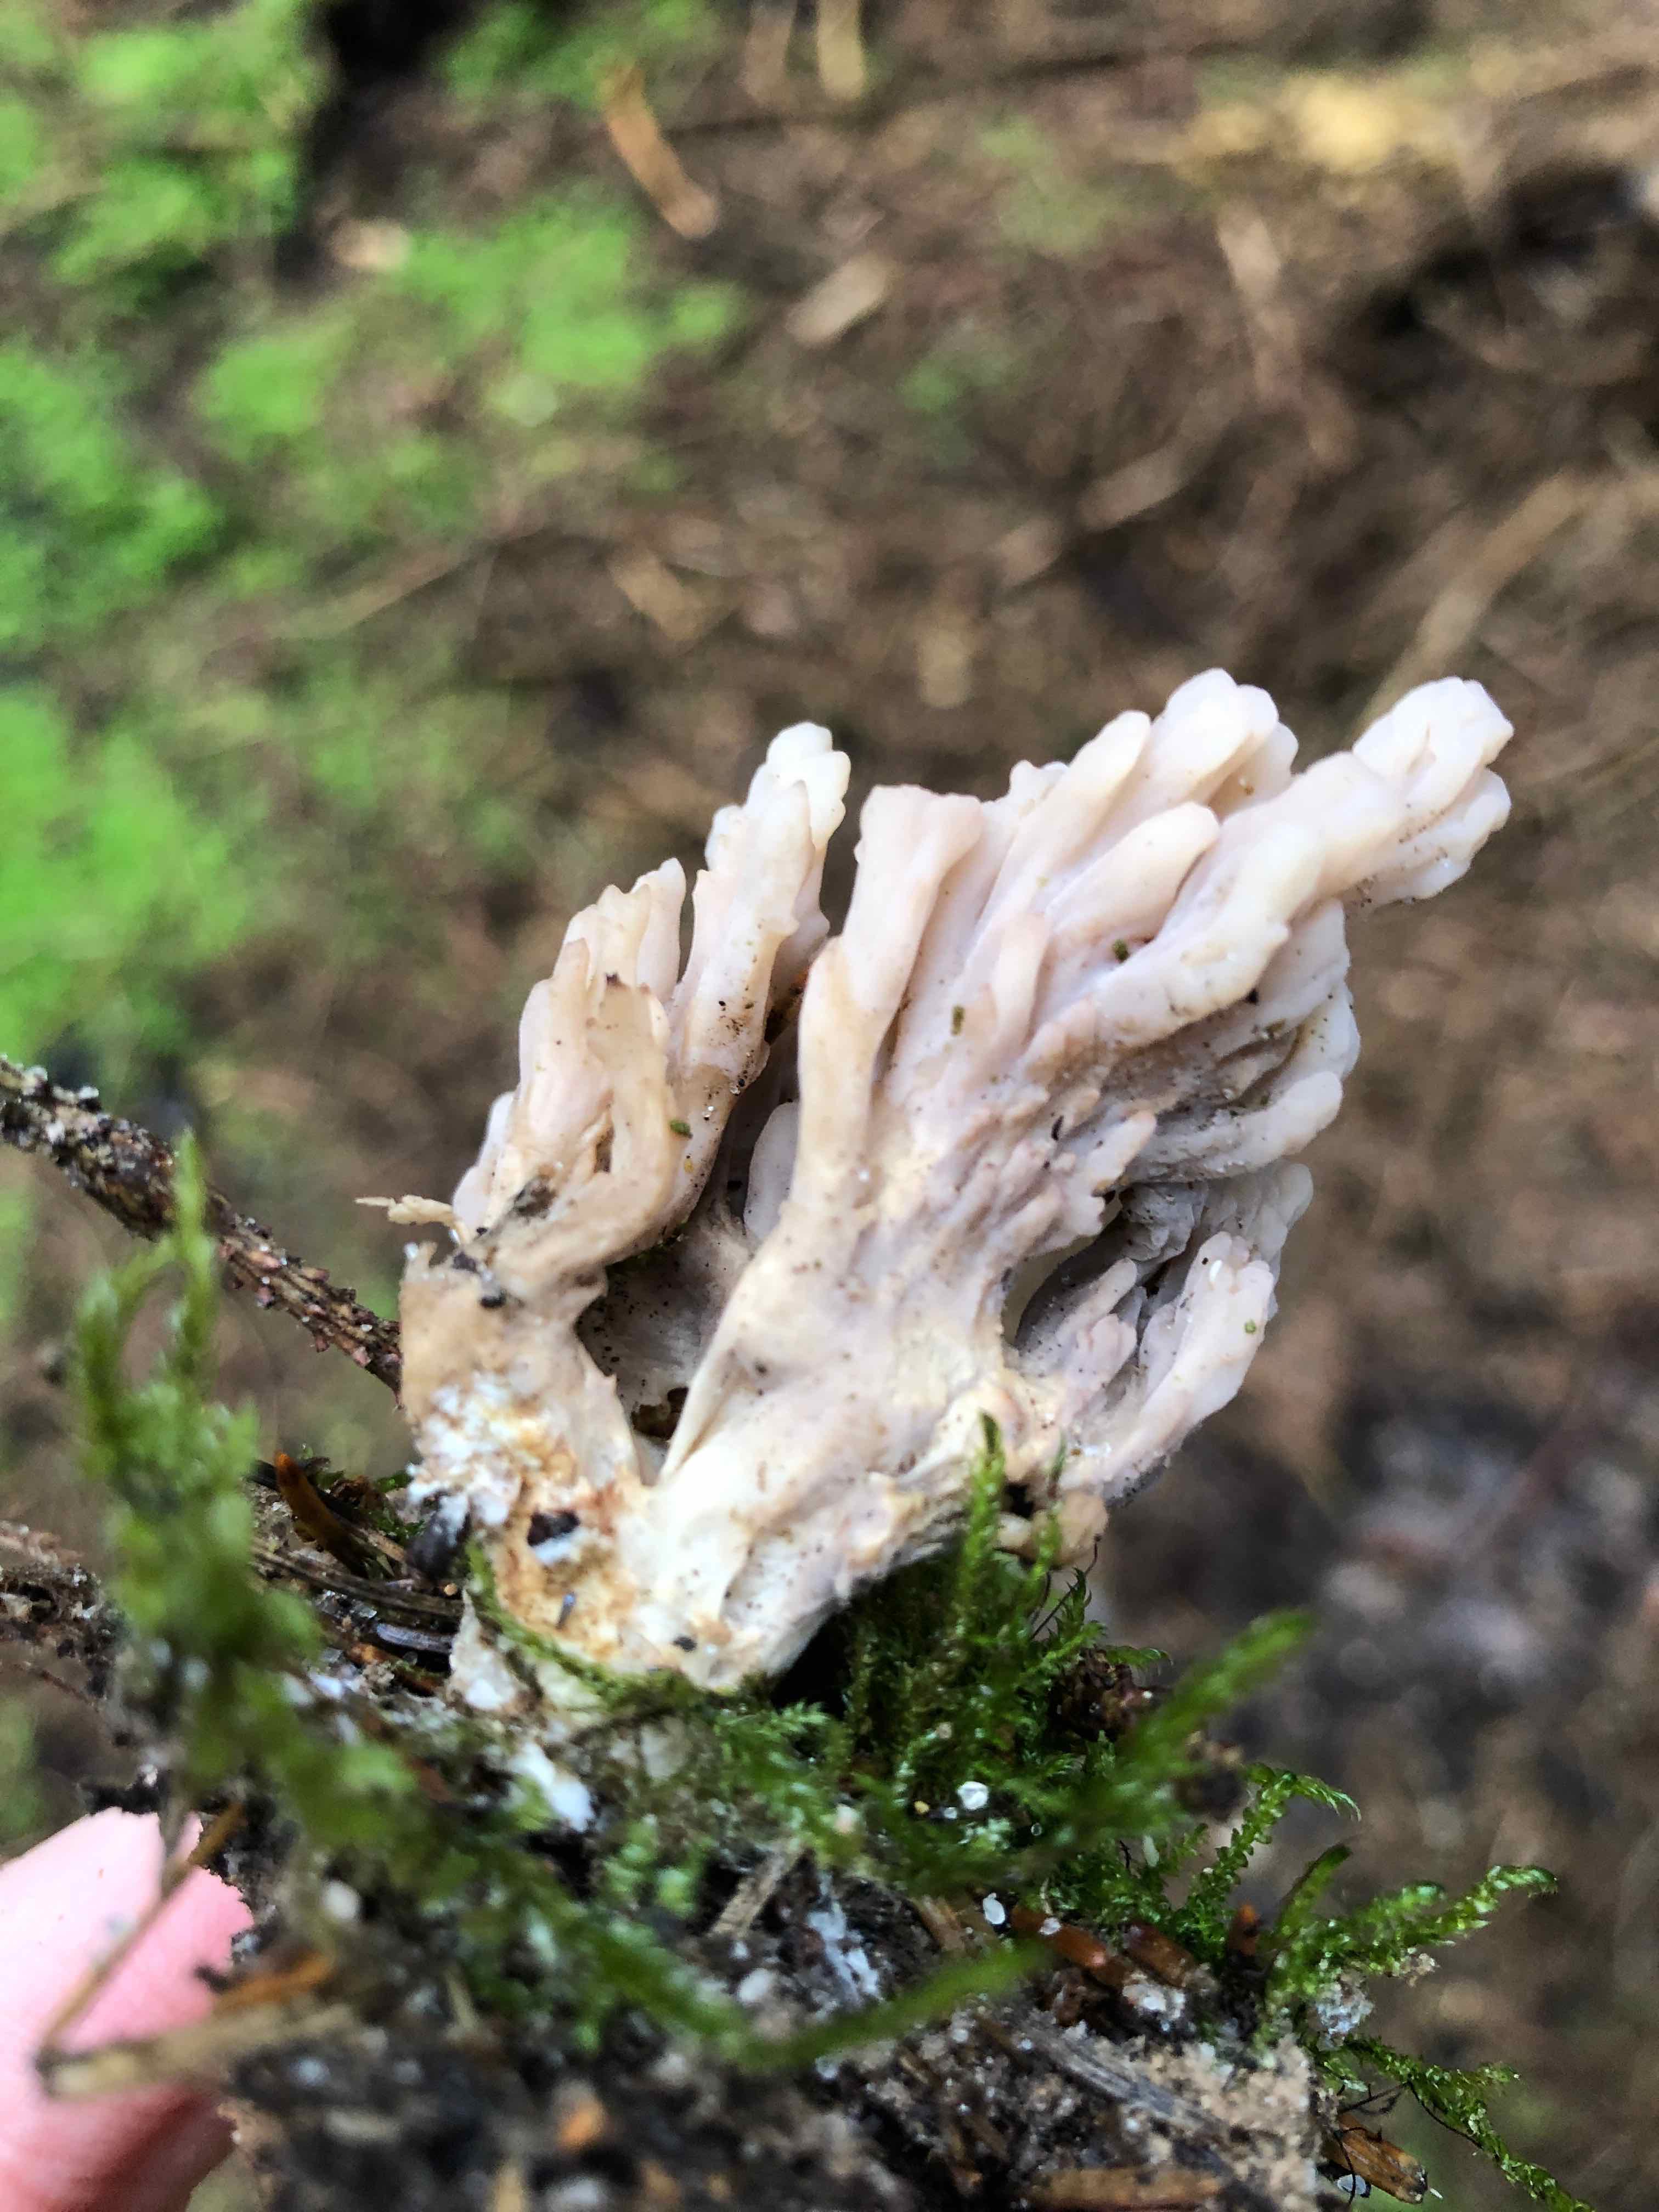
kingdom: Fungi
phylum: Basidiomycota
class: Agaricomycetes
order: Cantharellales
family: Hydnaceae
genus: Clavulina
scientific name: Clavulina
